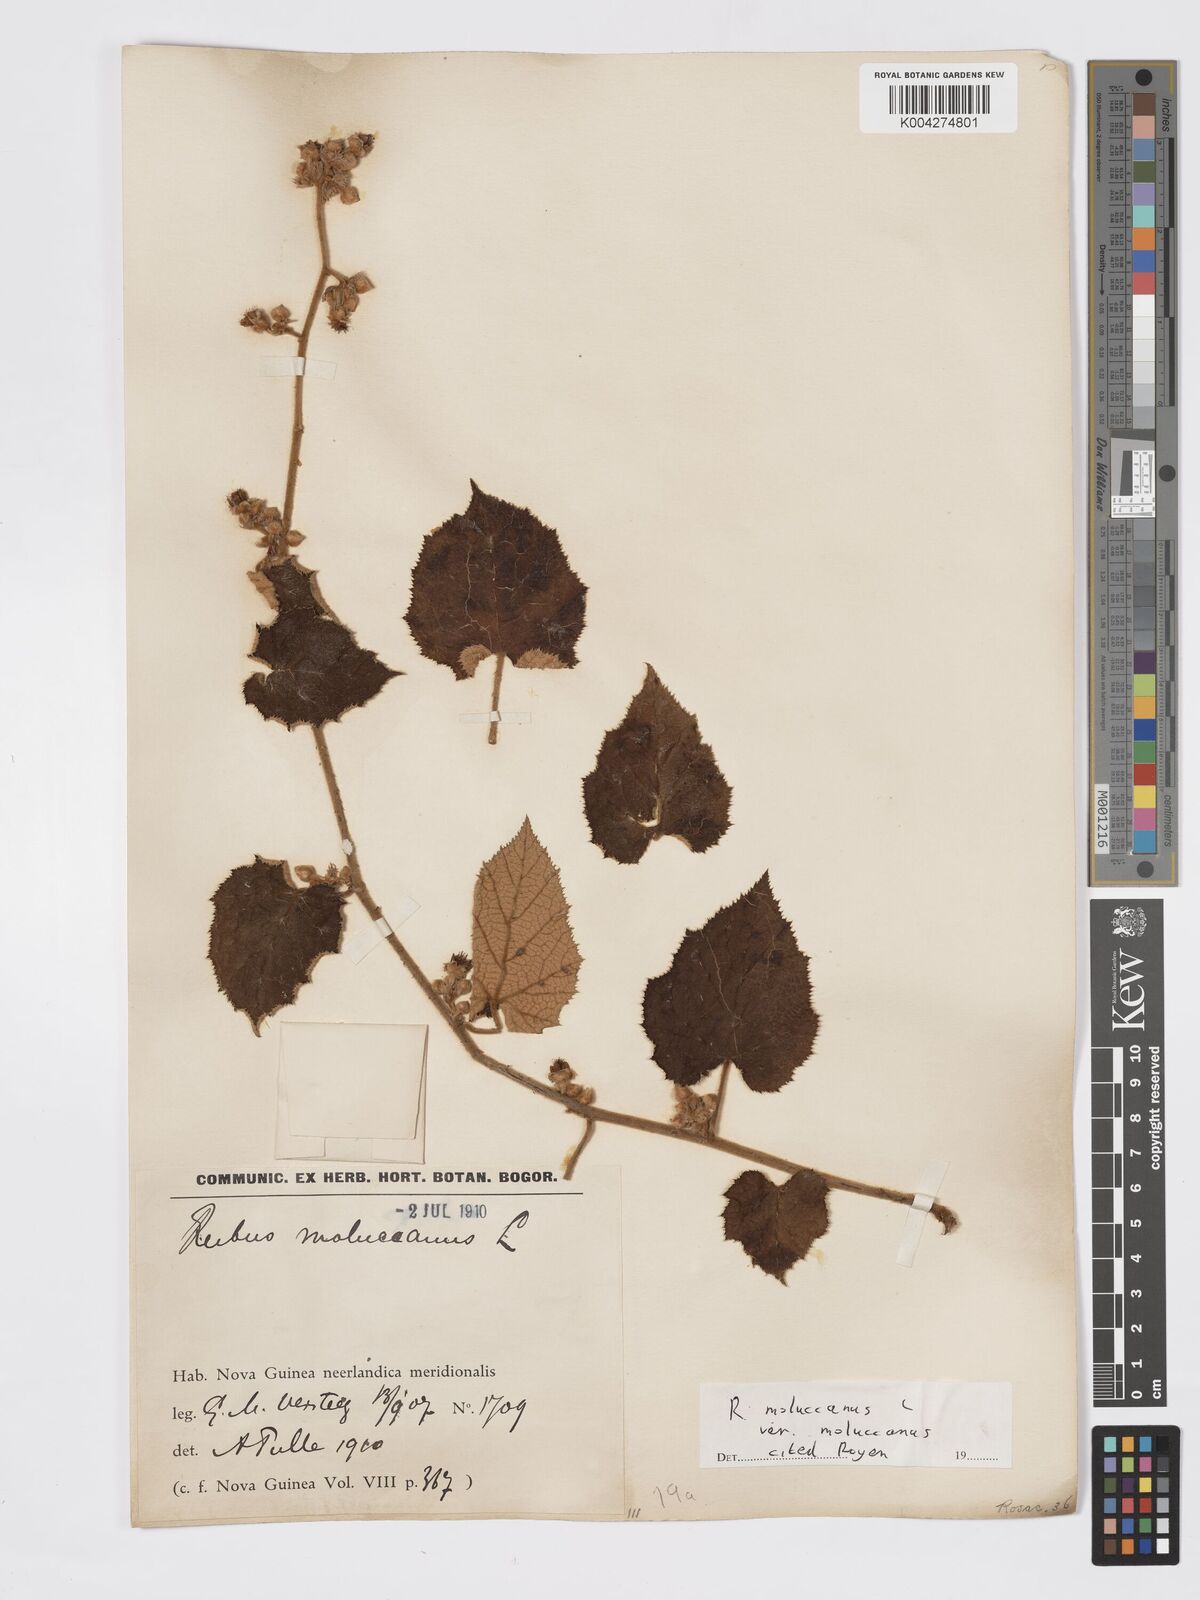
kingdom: Plantae
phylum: Tracheophyta
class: Magnoliopsida
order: Rosales
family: Rosaceae
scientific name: Rosaceae
